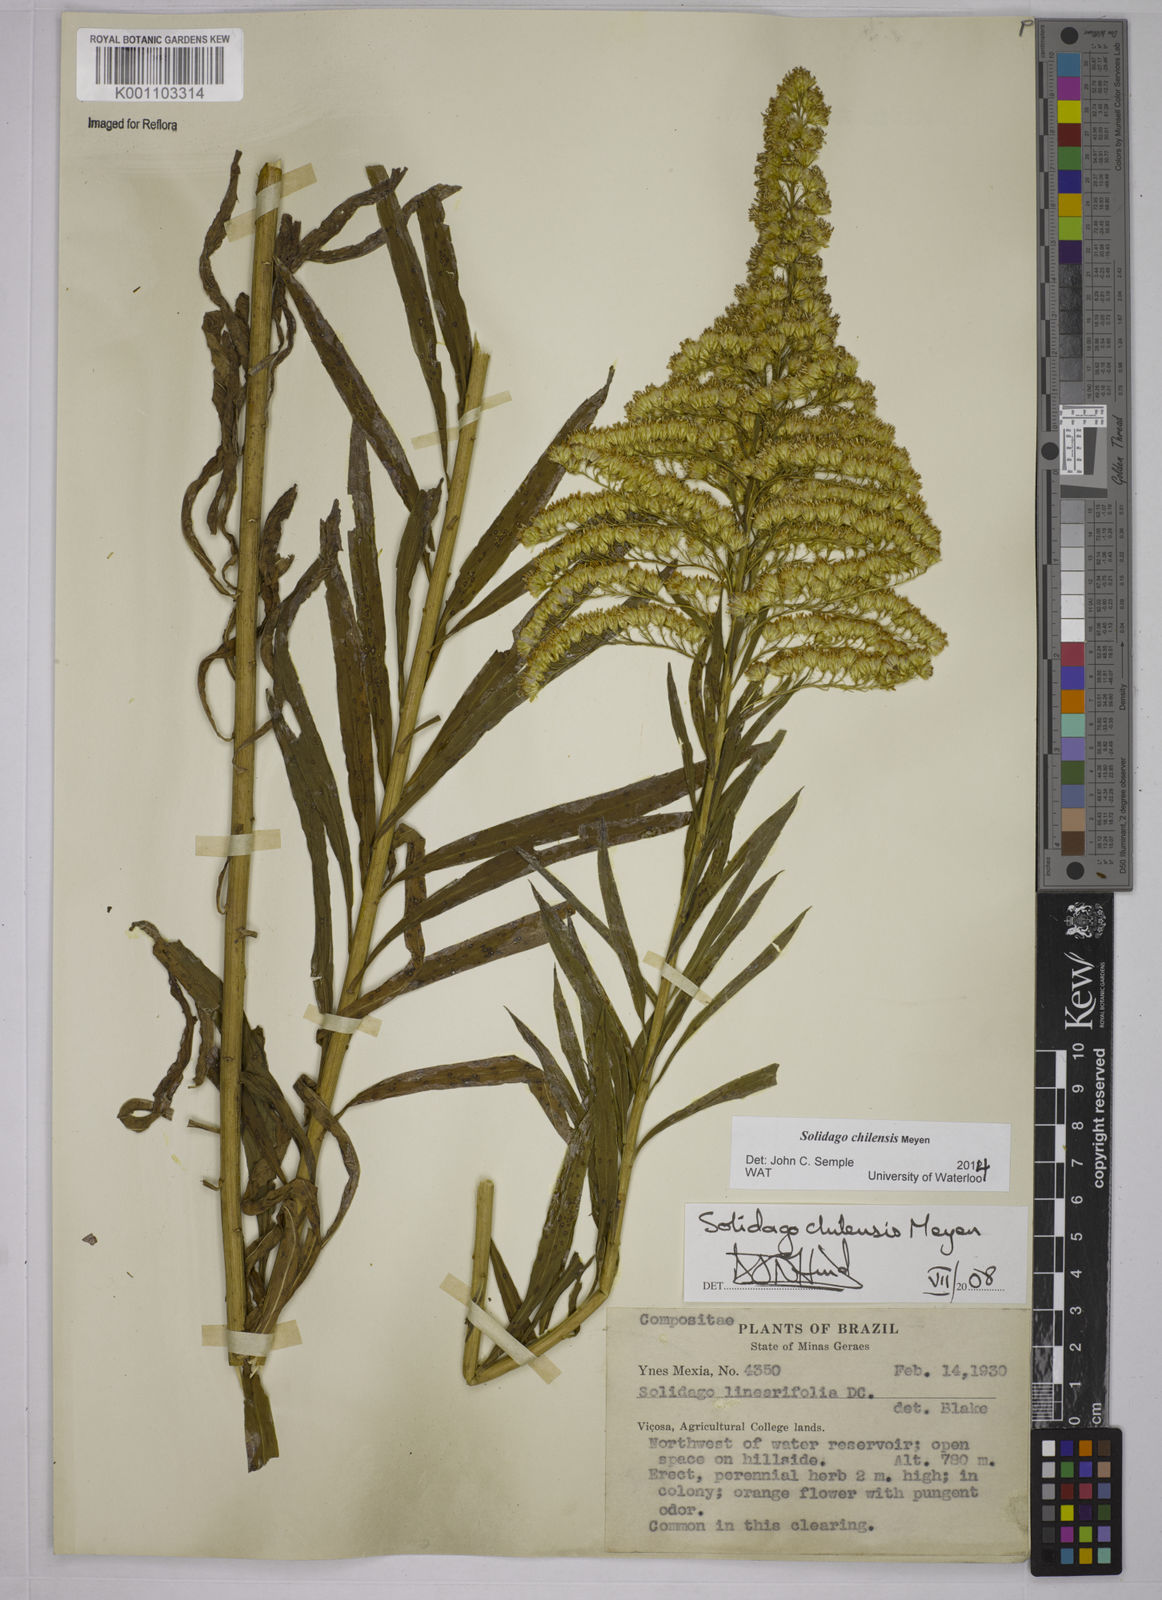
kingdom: Plantae
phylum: Tracheophyta
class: Magnoliopsida
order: Asterales
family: Asteraceae
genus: Solidago
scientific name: Solidago chilensis
